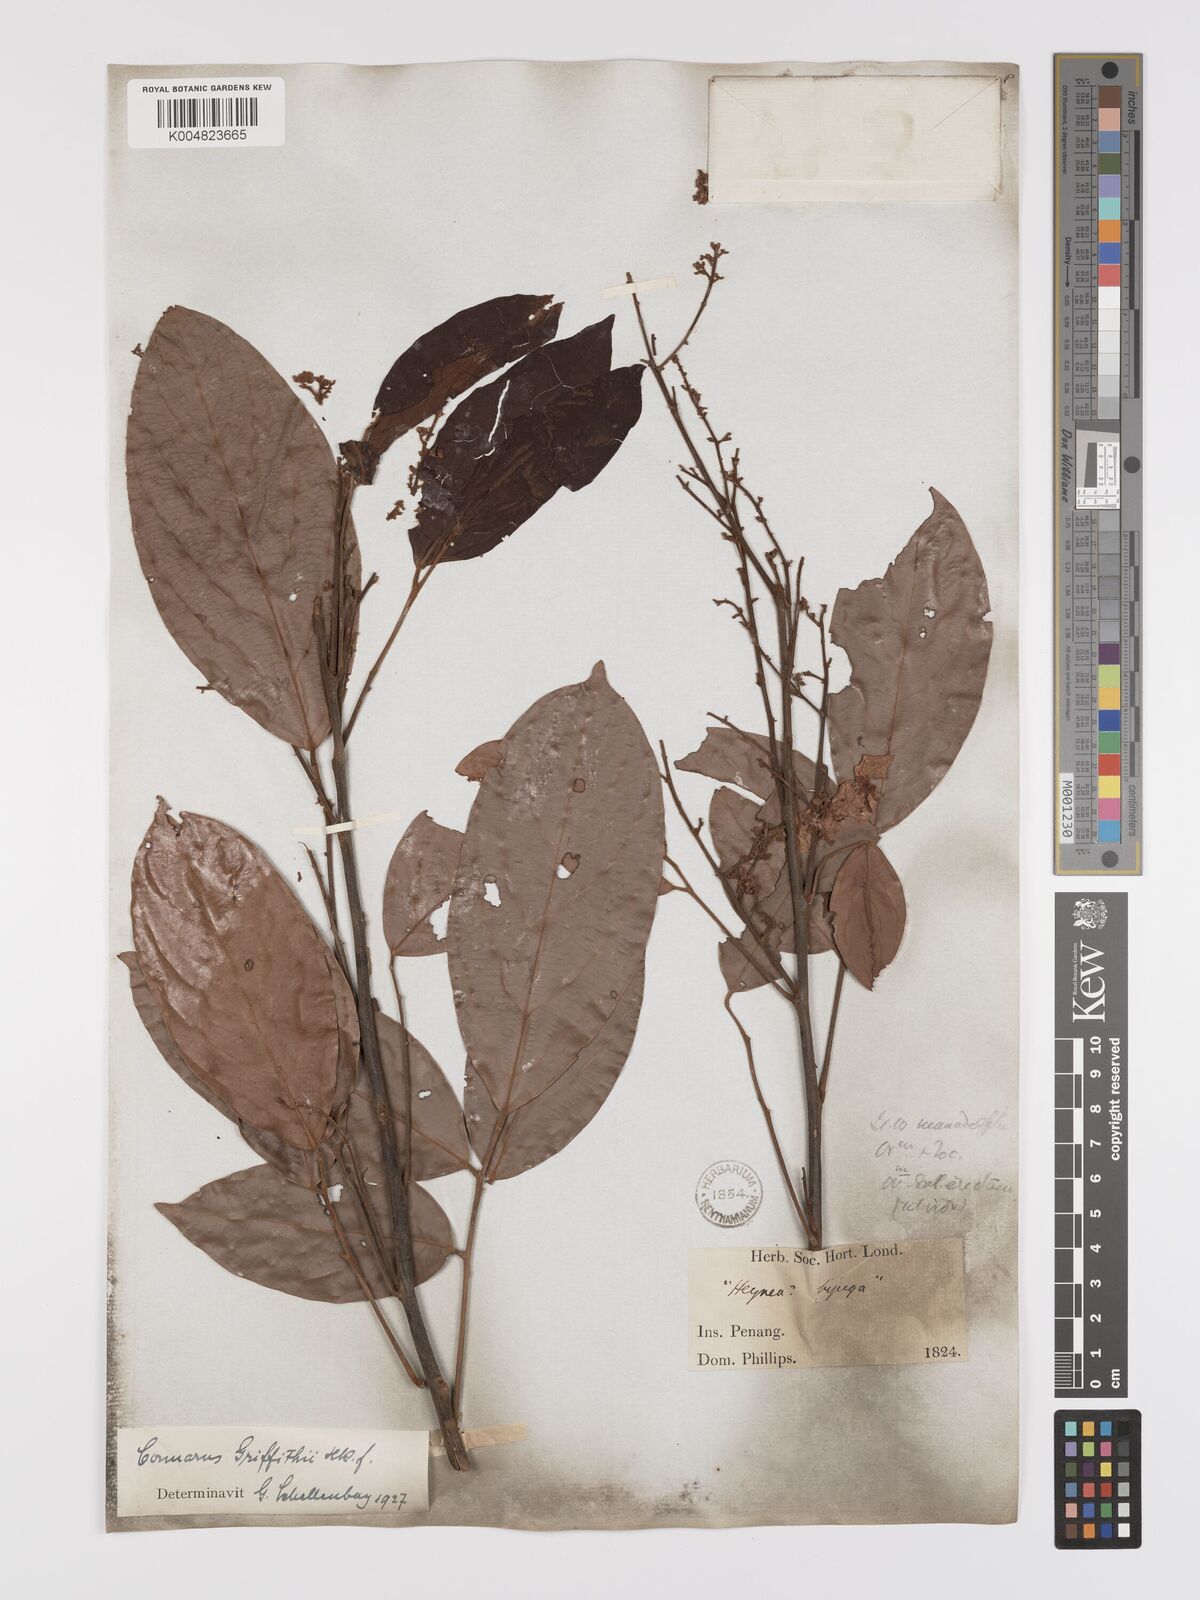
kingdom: Plantae
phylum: Tracheophyta
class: Magnoliopsida
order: Oxalidales
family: Connaraceae
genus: Connarus
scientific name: Connarus semidecandrus
